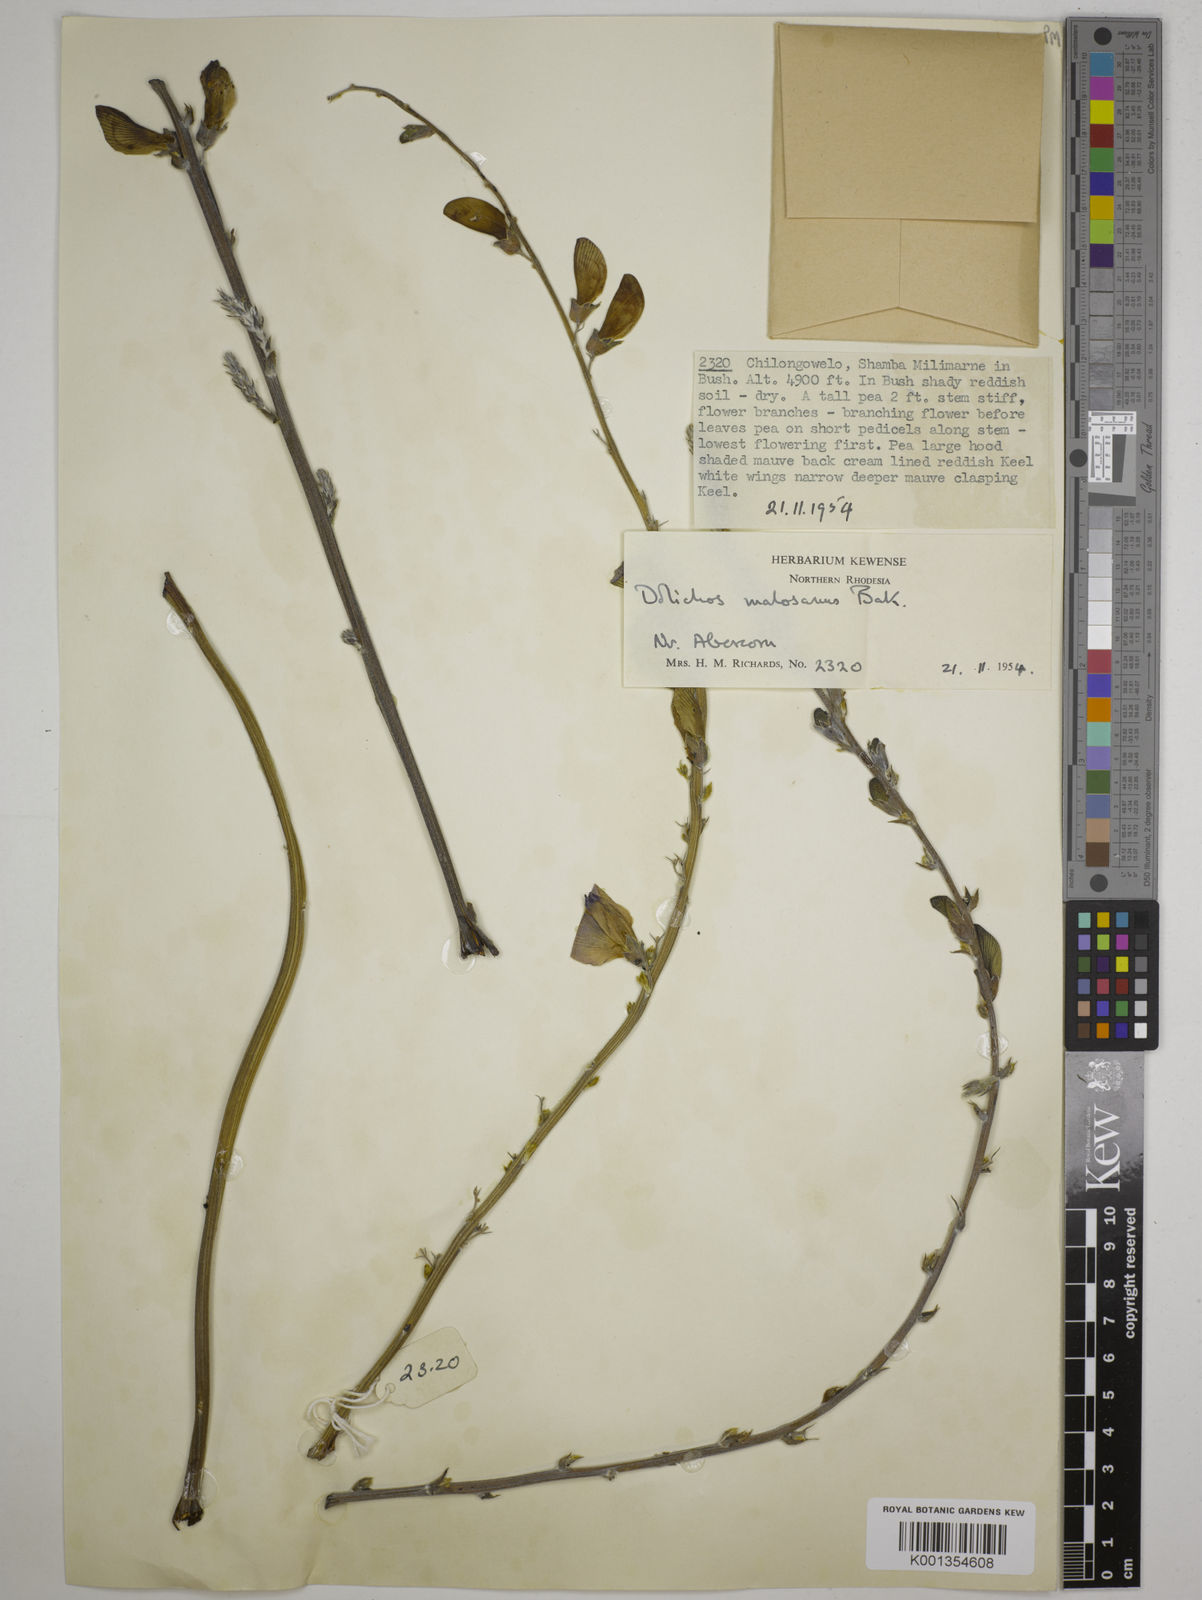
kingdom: Plantae
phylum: Tracheophyta
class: Magnoliopsida
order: Fabales
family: Fabaceae
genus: Dolichos
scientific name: Dolichos kilimandscharicus
